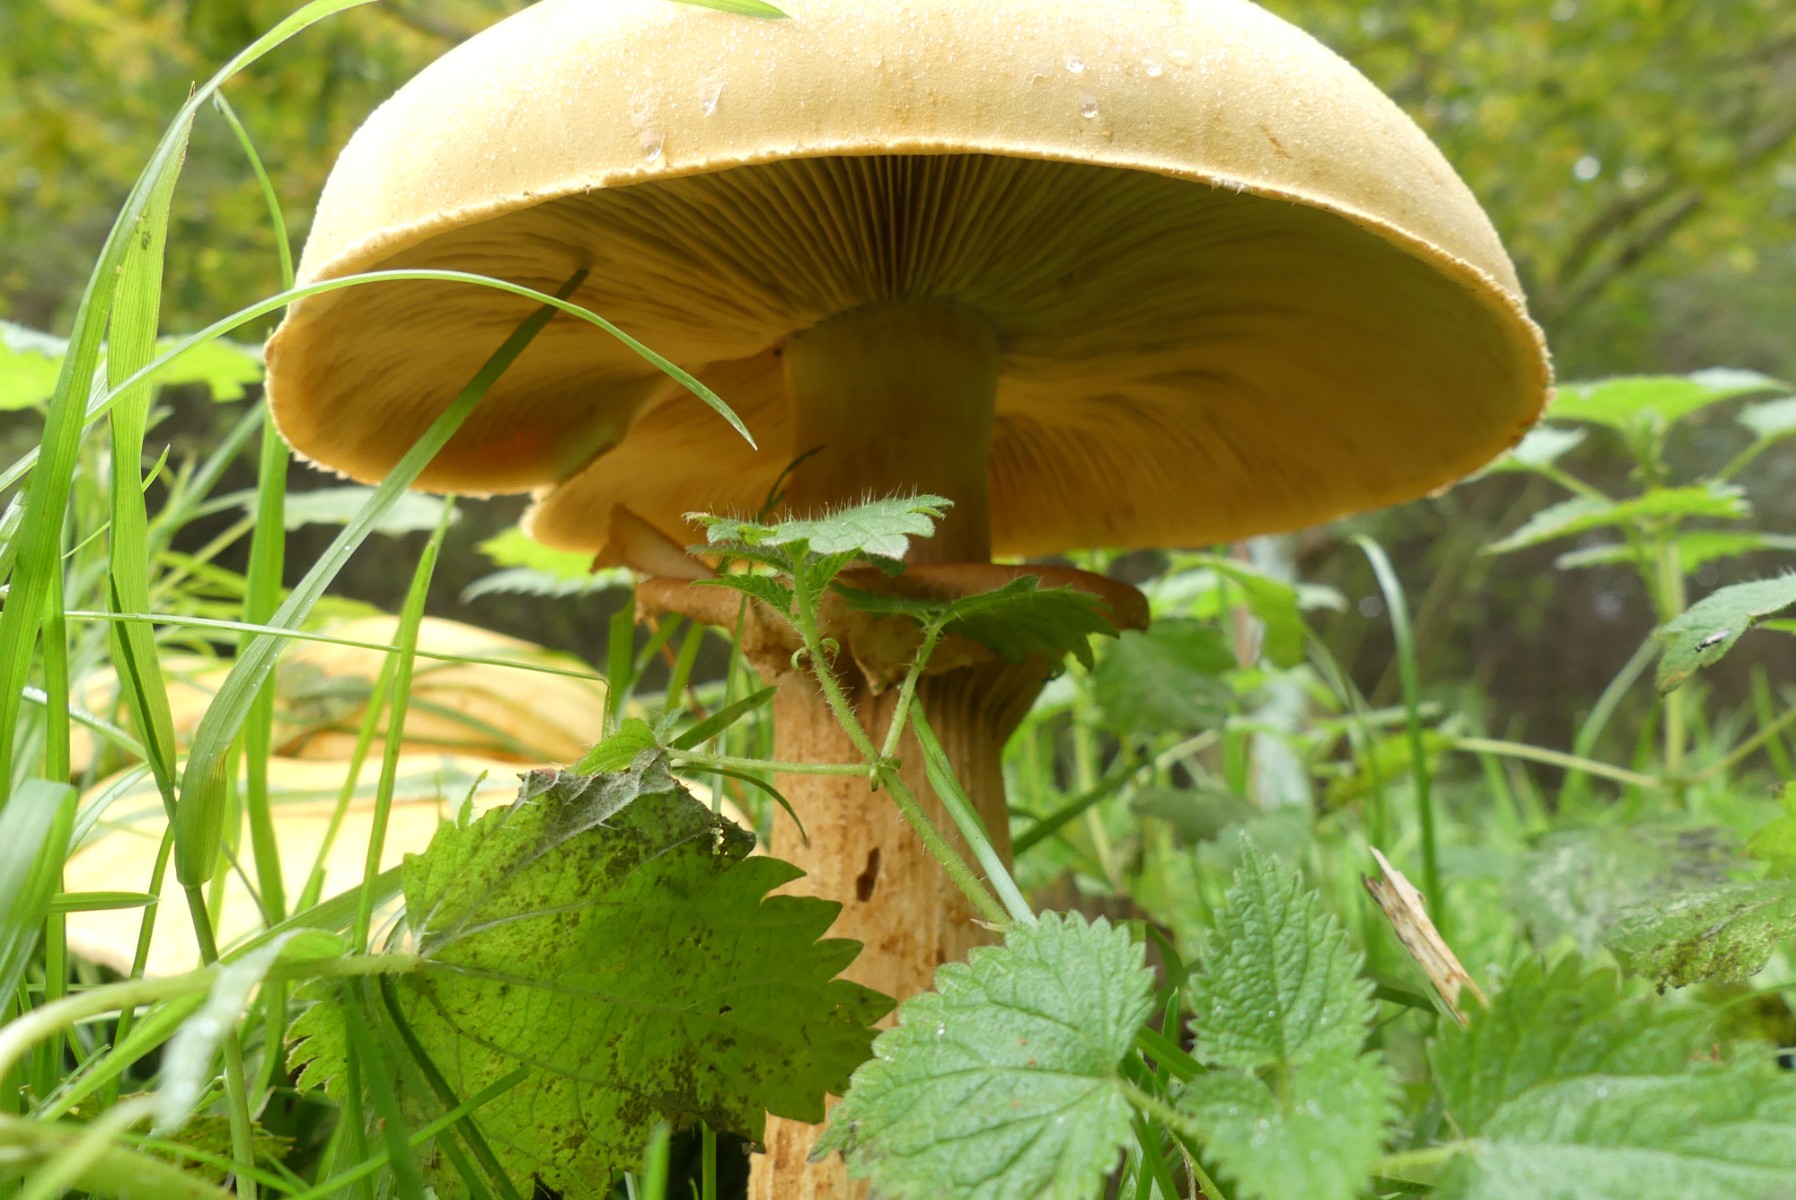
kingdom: Fungi
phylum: Basidiomycota
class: Agaricomycetes
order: Agaricales
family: Tricholomataceae
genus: Phaeolepiota
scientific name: Phaeolepiota aurea
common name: gyldenhat
